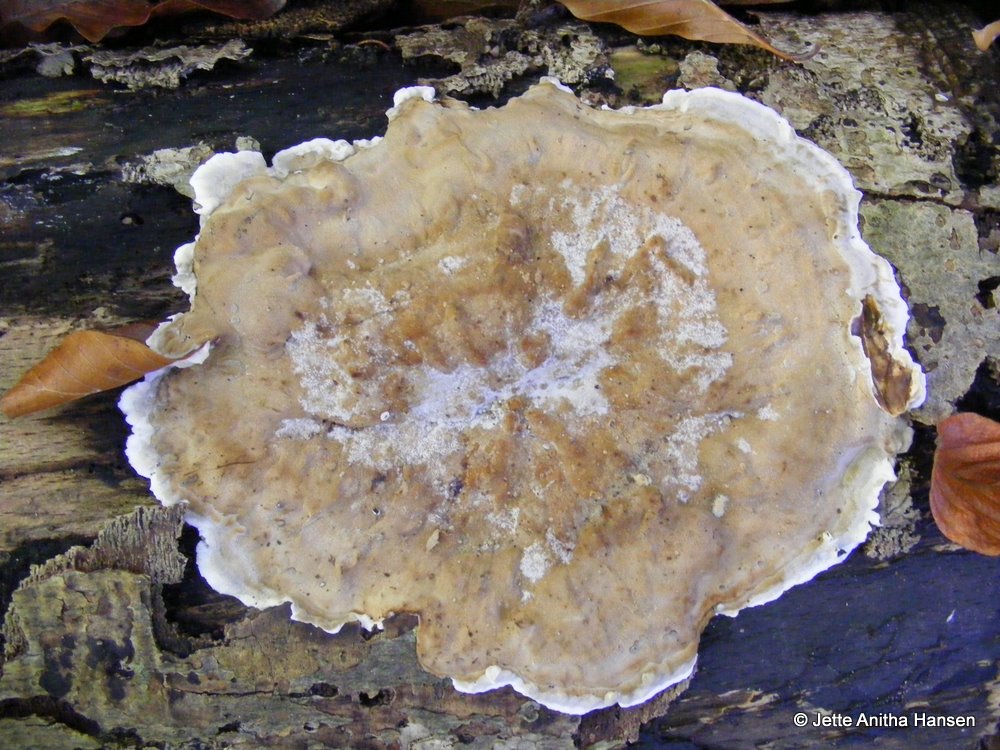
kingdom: Fungi
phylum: Basidiomycota
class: Agaricomycetes
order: Polyporales
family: Phanerochaetaceae
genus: Bjerkandera
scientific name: Bjerkandera adusta
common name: sveden sodporesvamp
